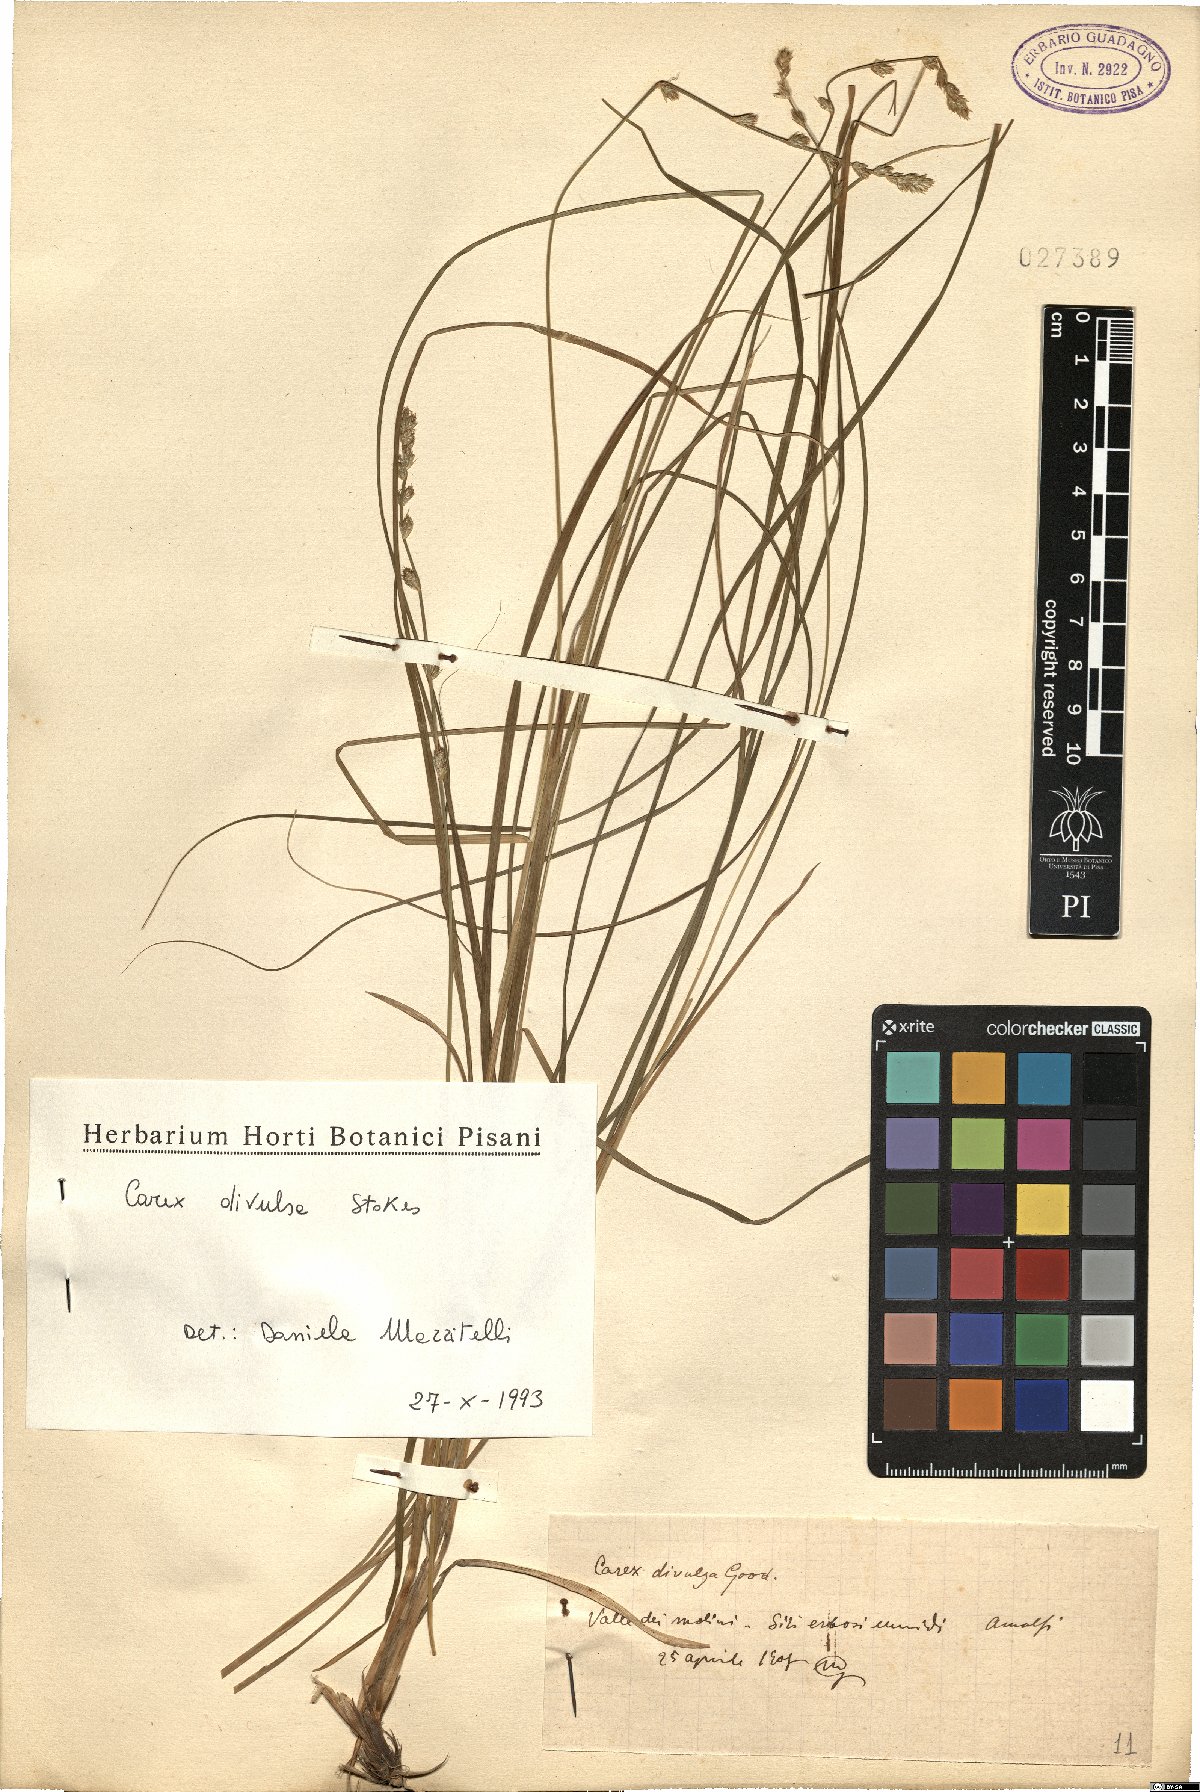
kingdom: Plantae
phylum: Tracheophyta
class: Liliopsida
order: Poales
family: Cyperaceae
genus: Carex
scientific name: Carex divulsa
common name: Grassland sedge
